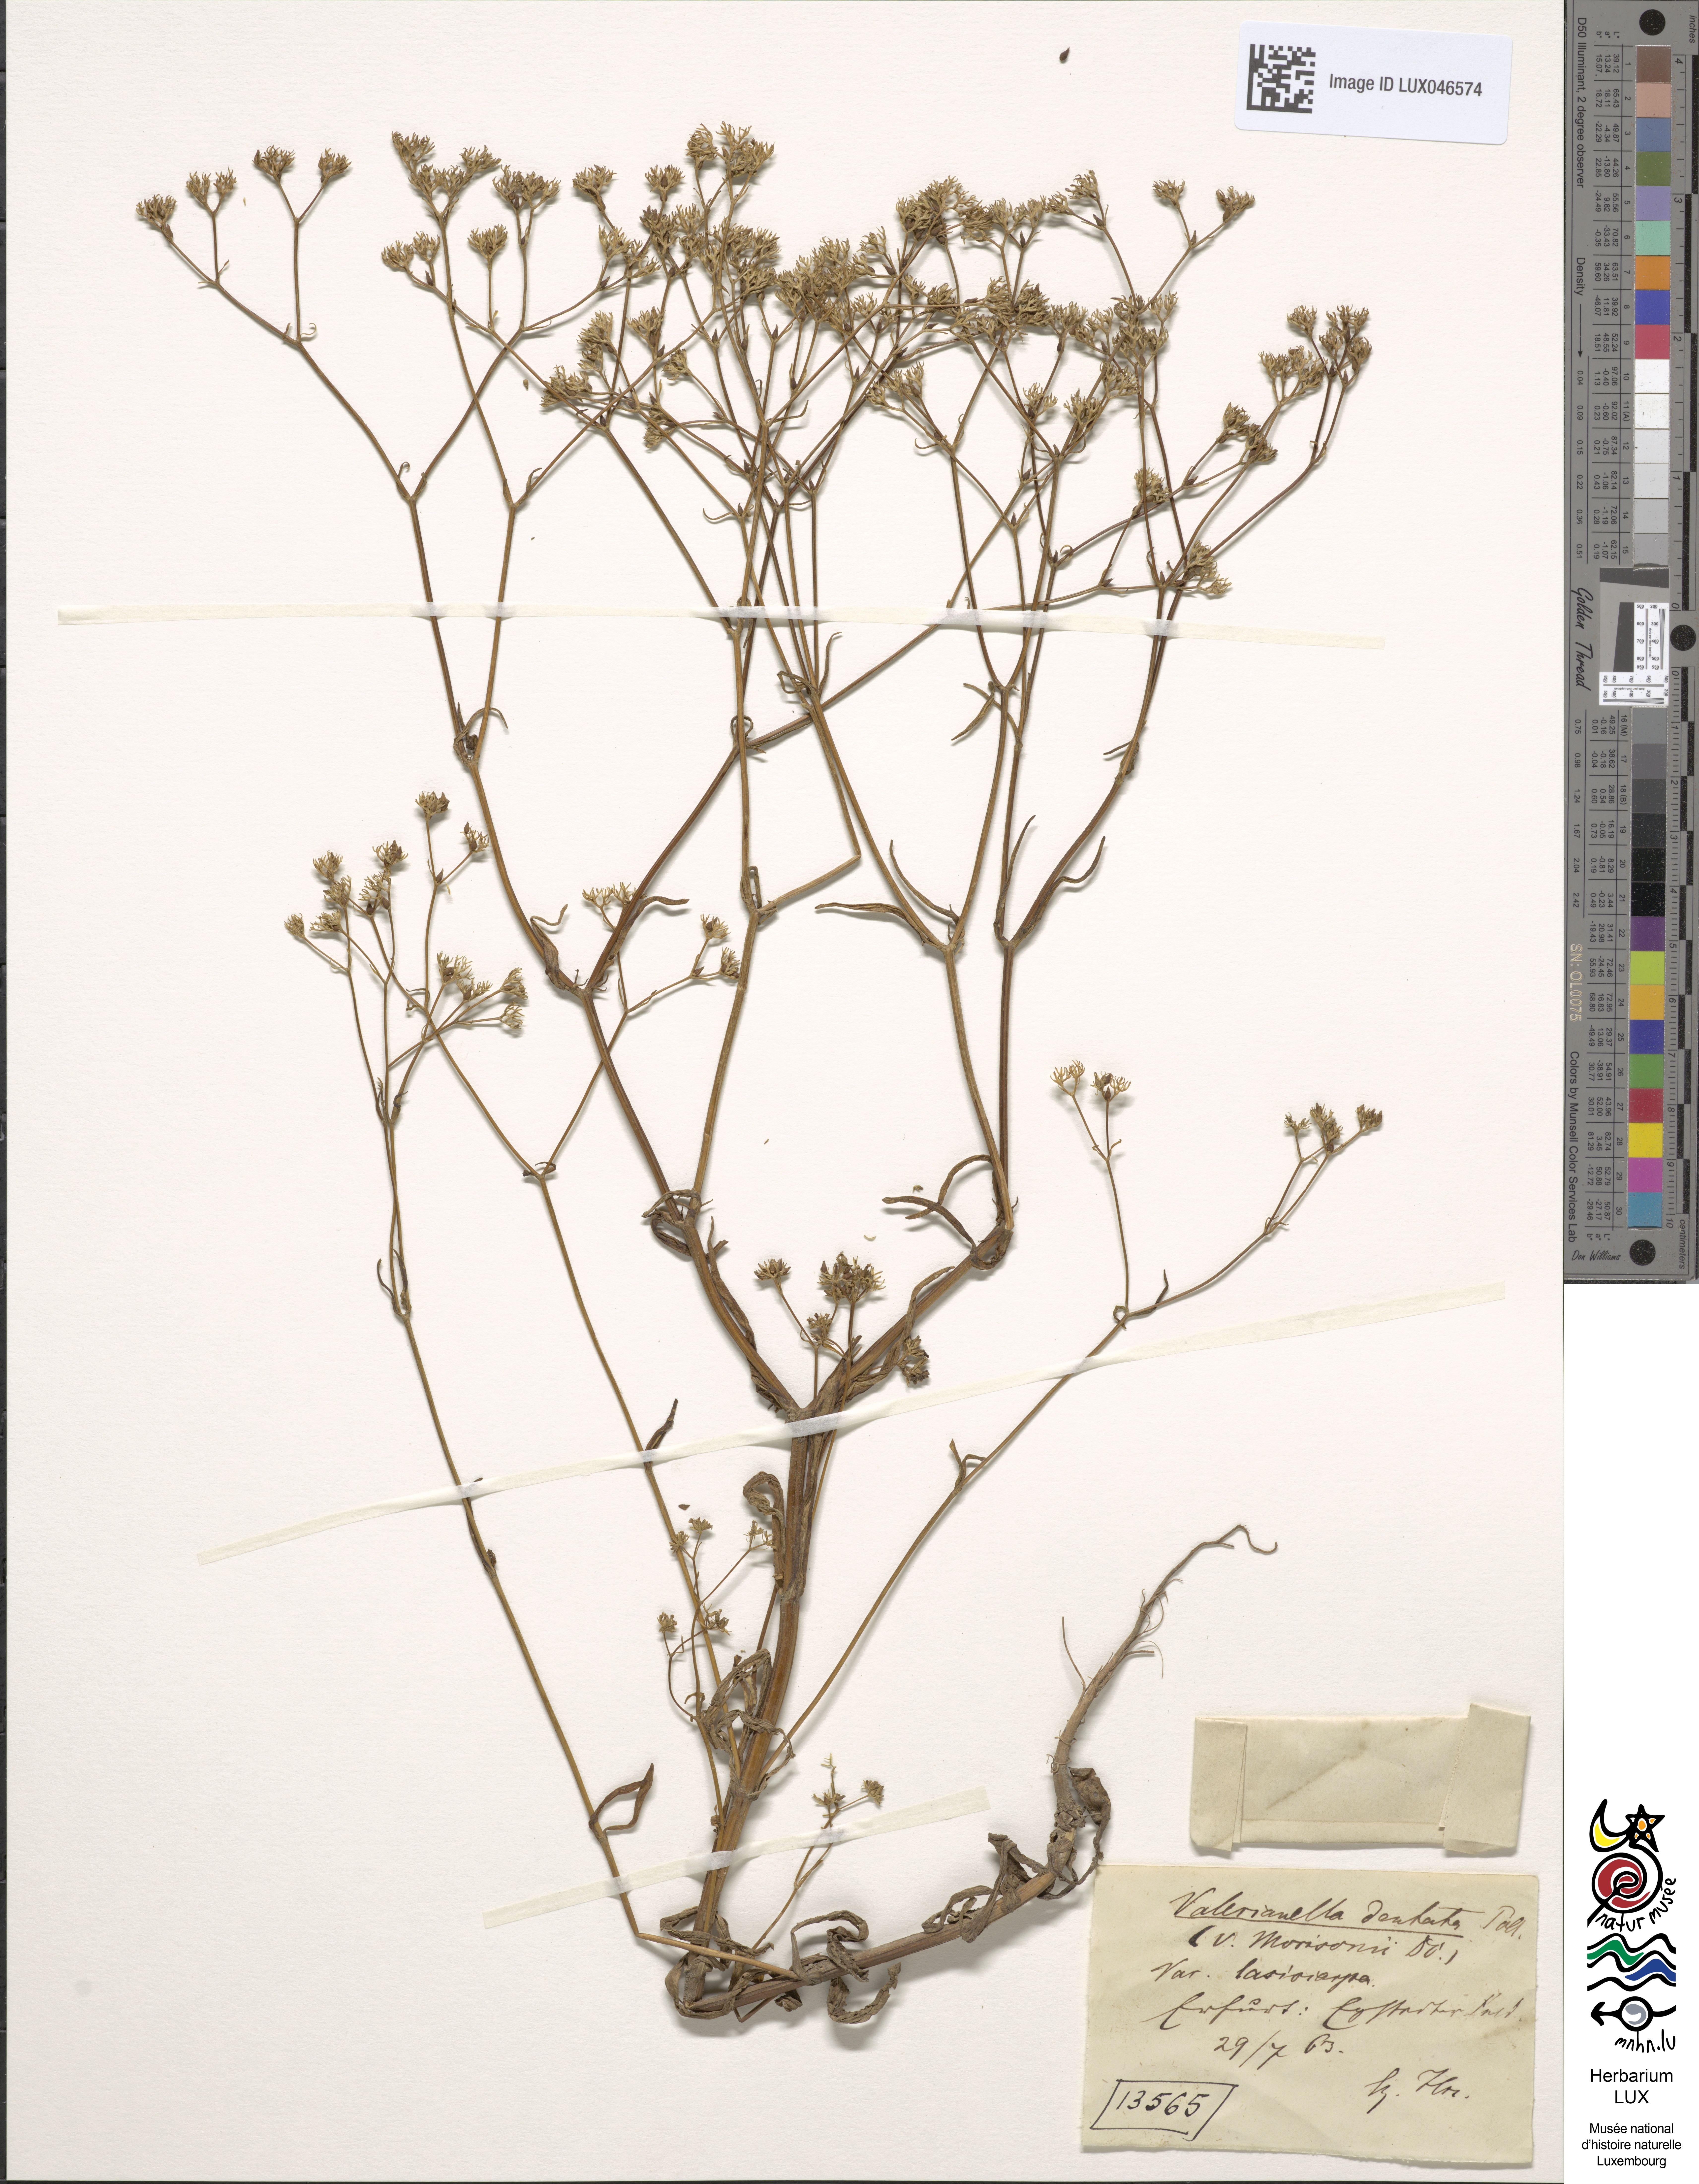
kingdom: Plantae
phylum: Tracheophyta
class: Magnoliopsida
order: Dipsacales
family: Caprifoliaceae
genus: Valerianella
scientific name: Valerianella dentata
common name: Narrow-fruited cornsalad
